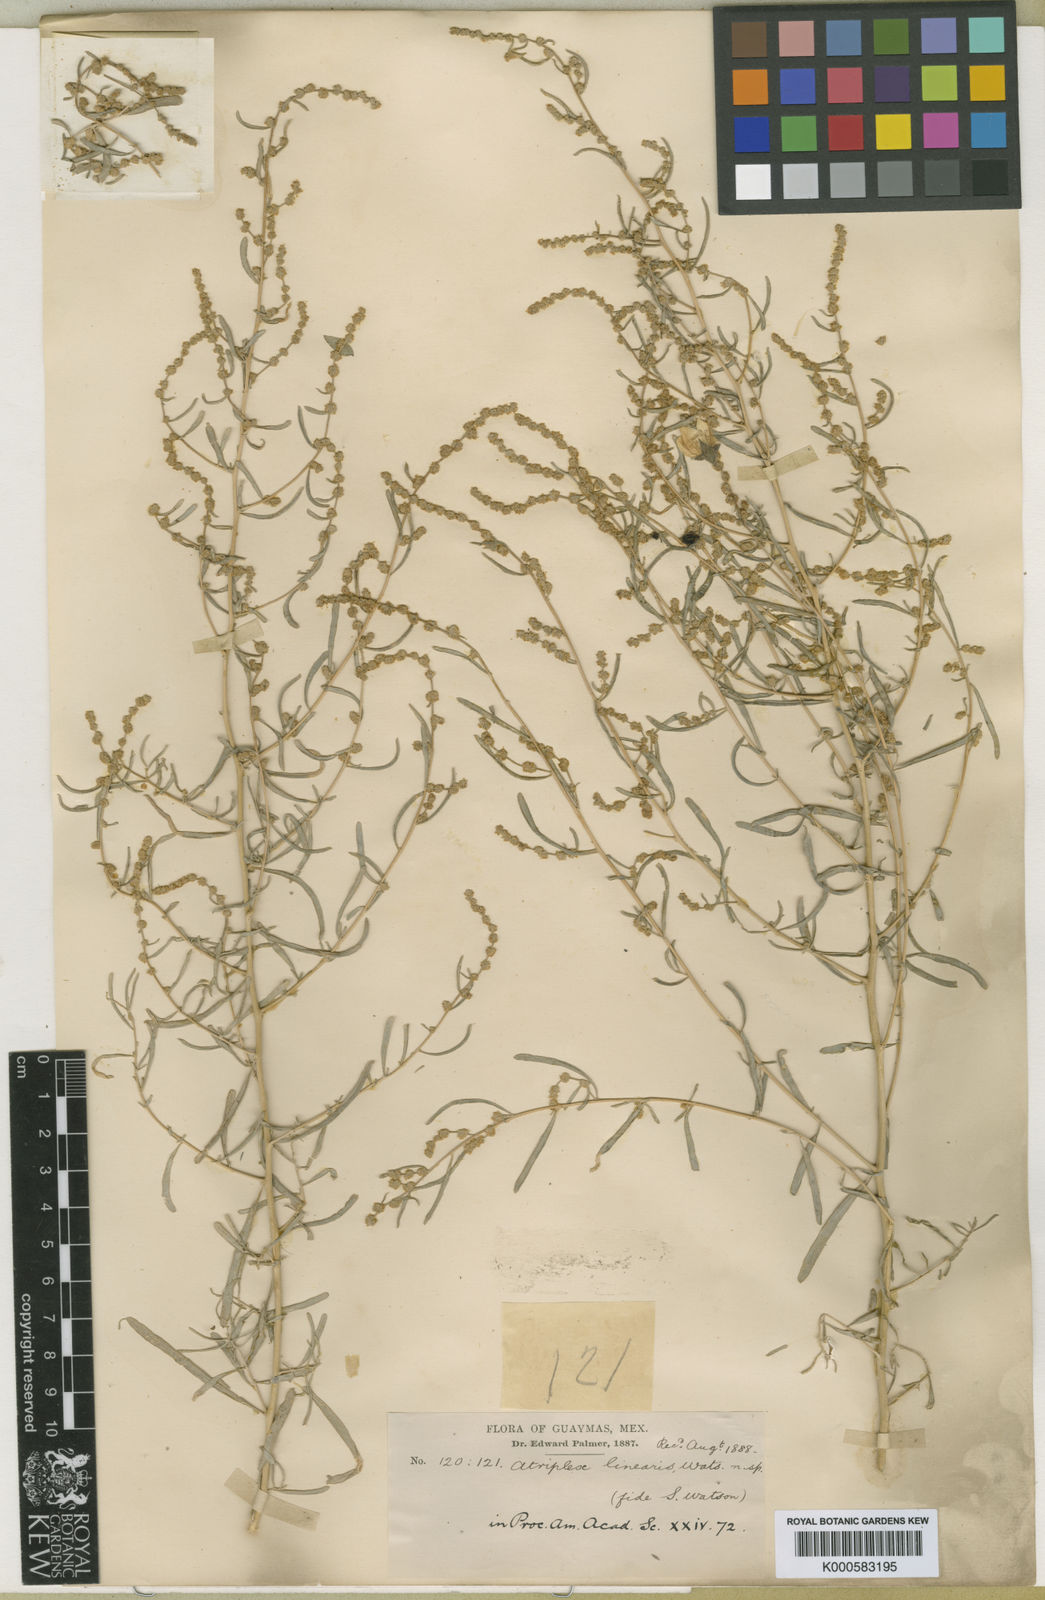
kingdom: Plantae
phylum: Tracheophyta
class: Magnoliopsida
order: Caryophyllales
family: Amaranthaceae
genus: Atriplex
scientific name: Atriplex linearis
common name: Slender-leaf saltbush
